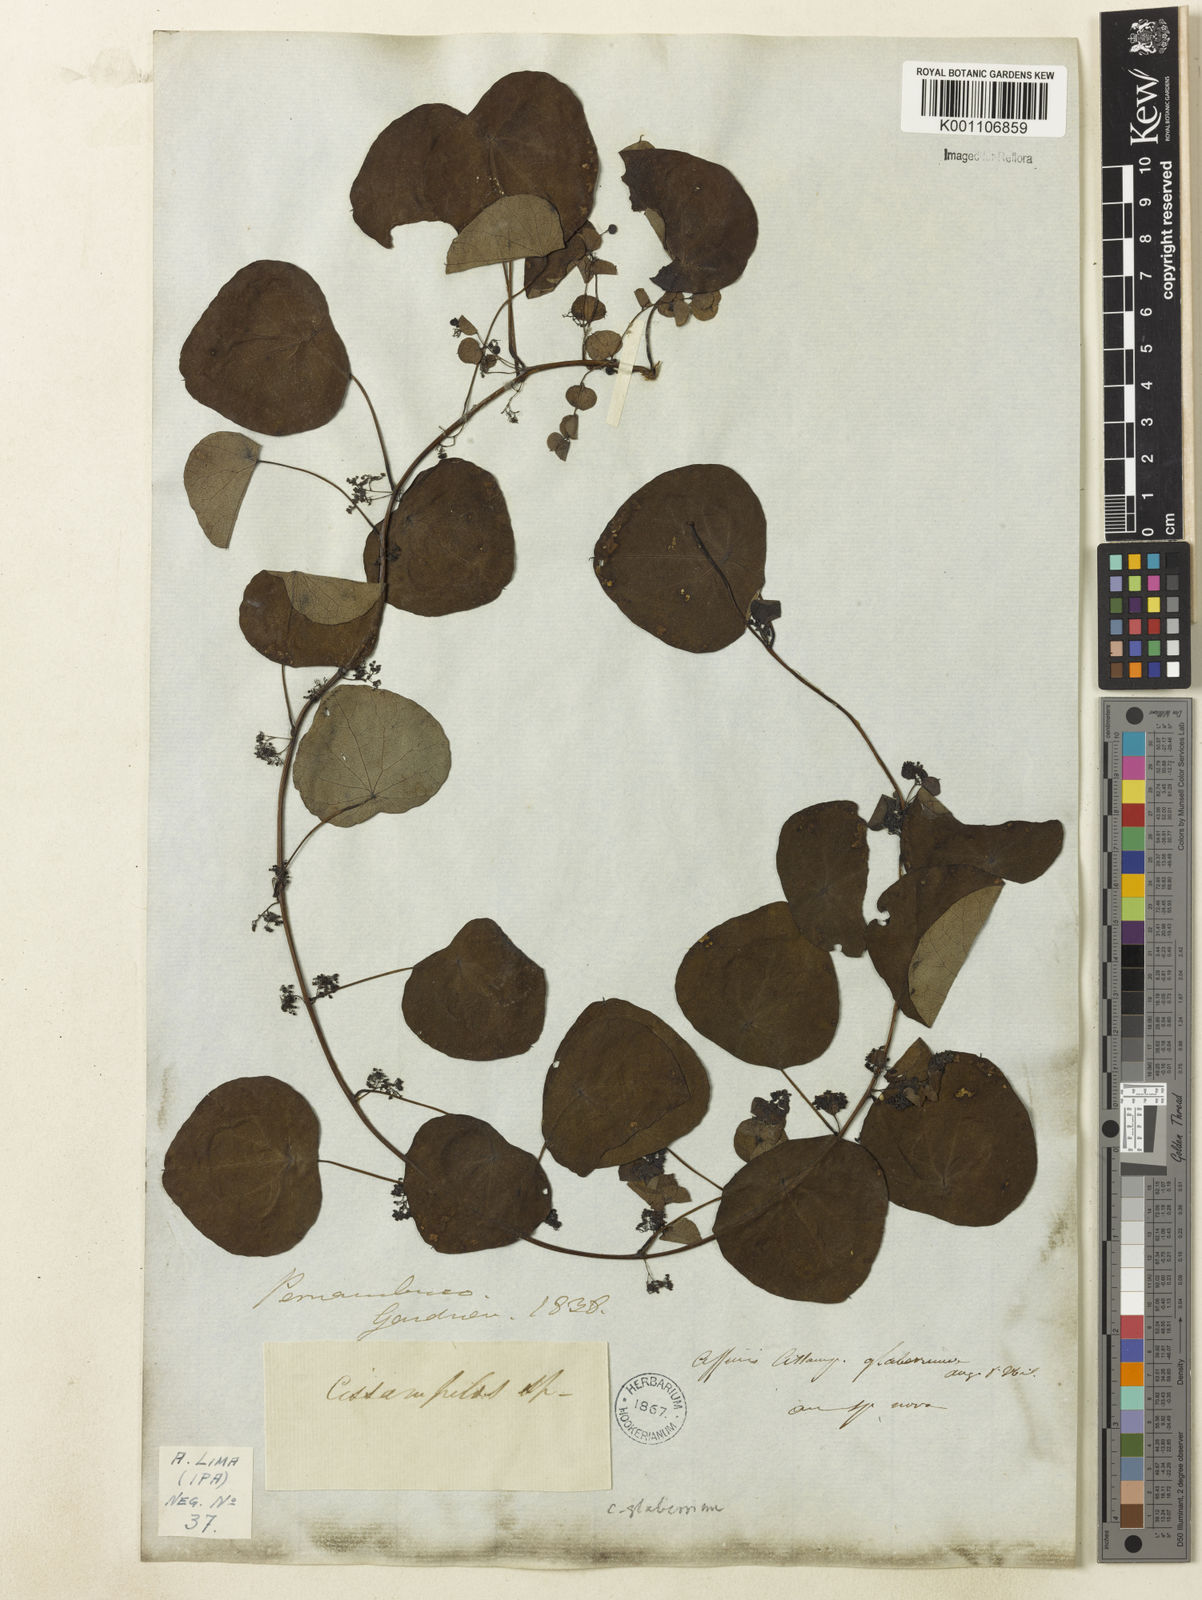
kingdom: Plantae
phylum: Tracheophyta
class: Magnoliopsida
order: Ranunculales
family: Menispermaceae
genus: Cissampelos
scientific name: Cissampelos glaberrima
